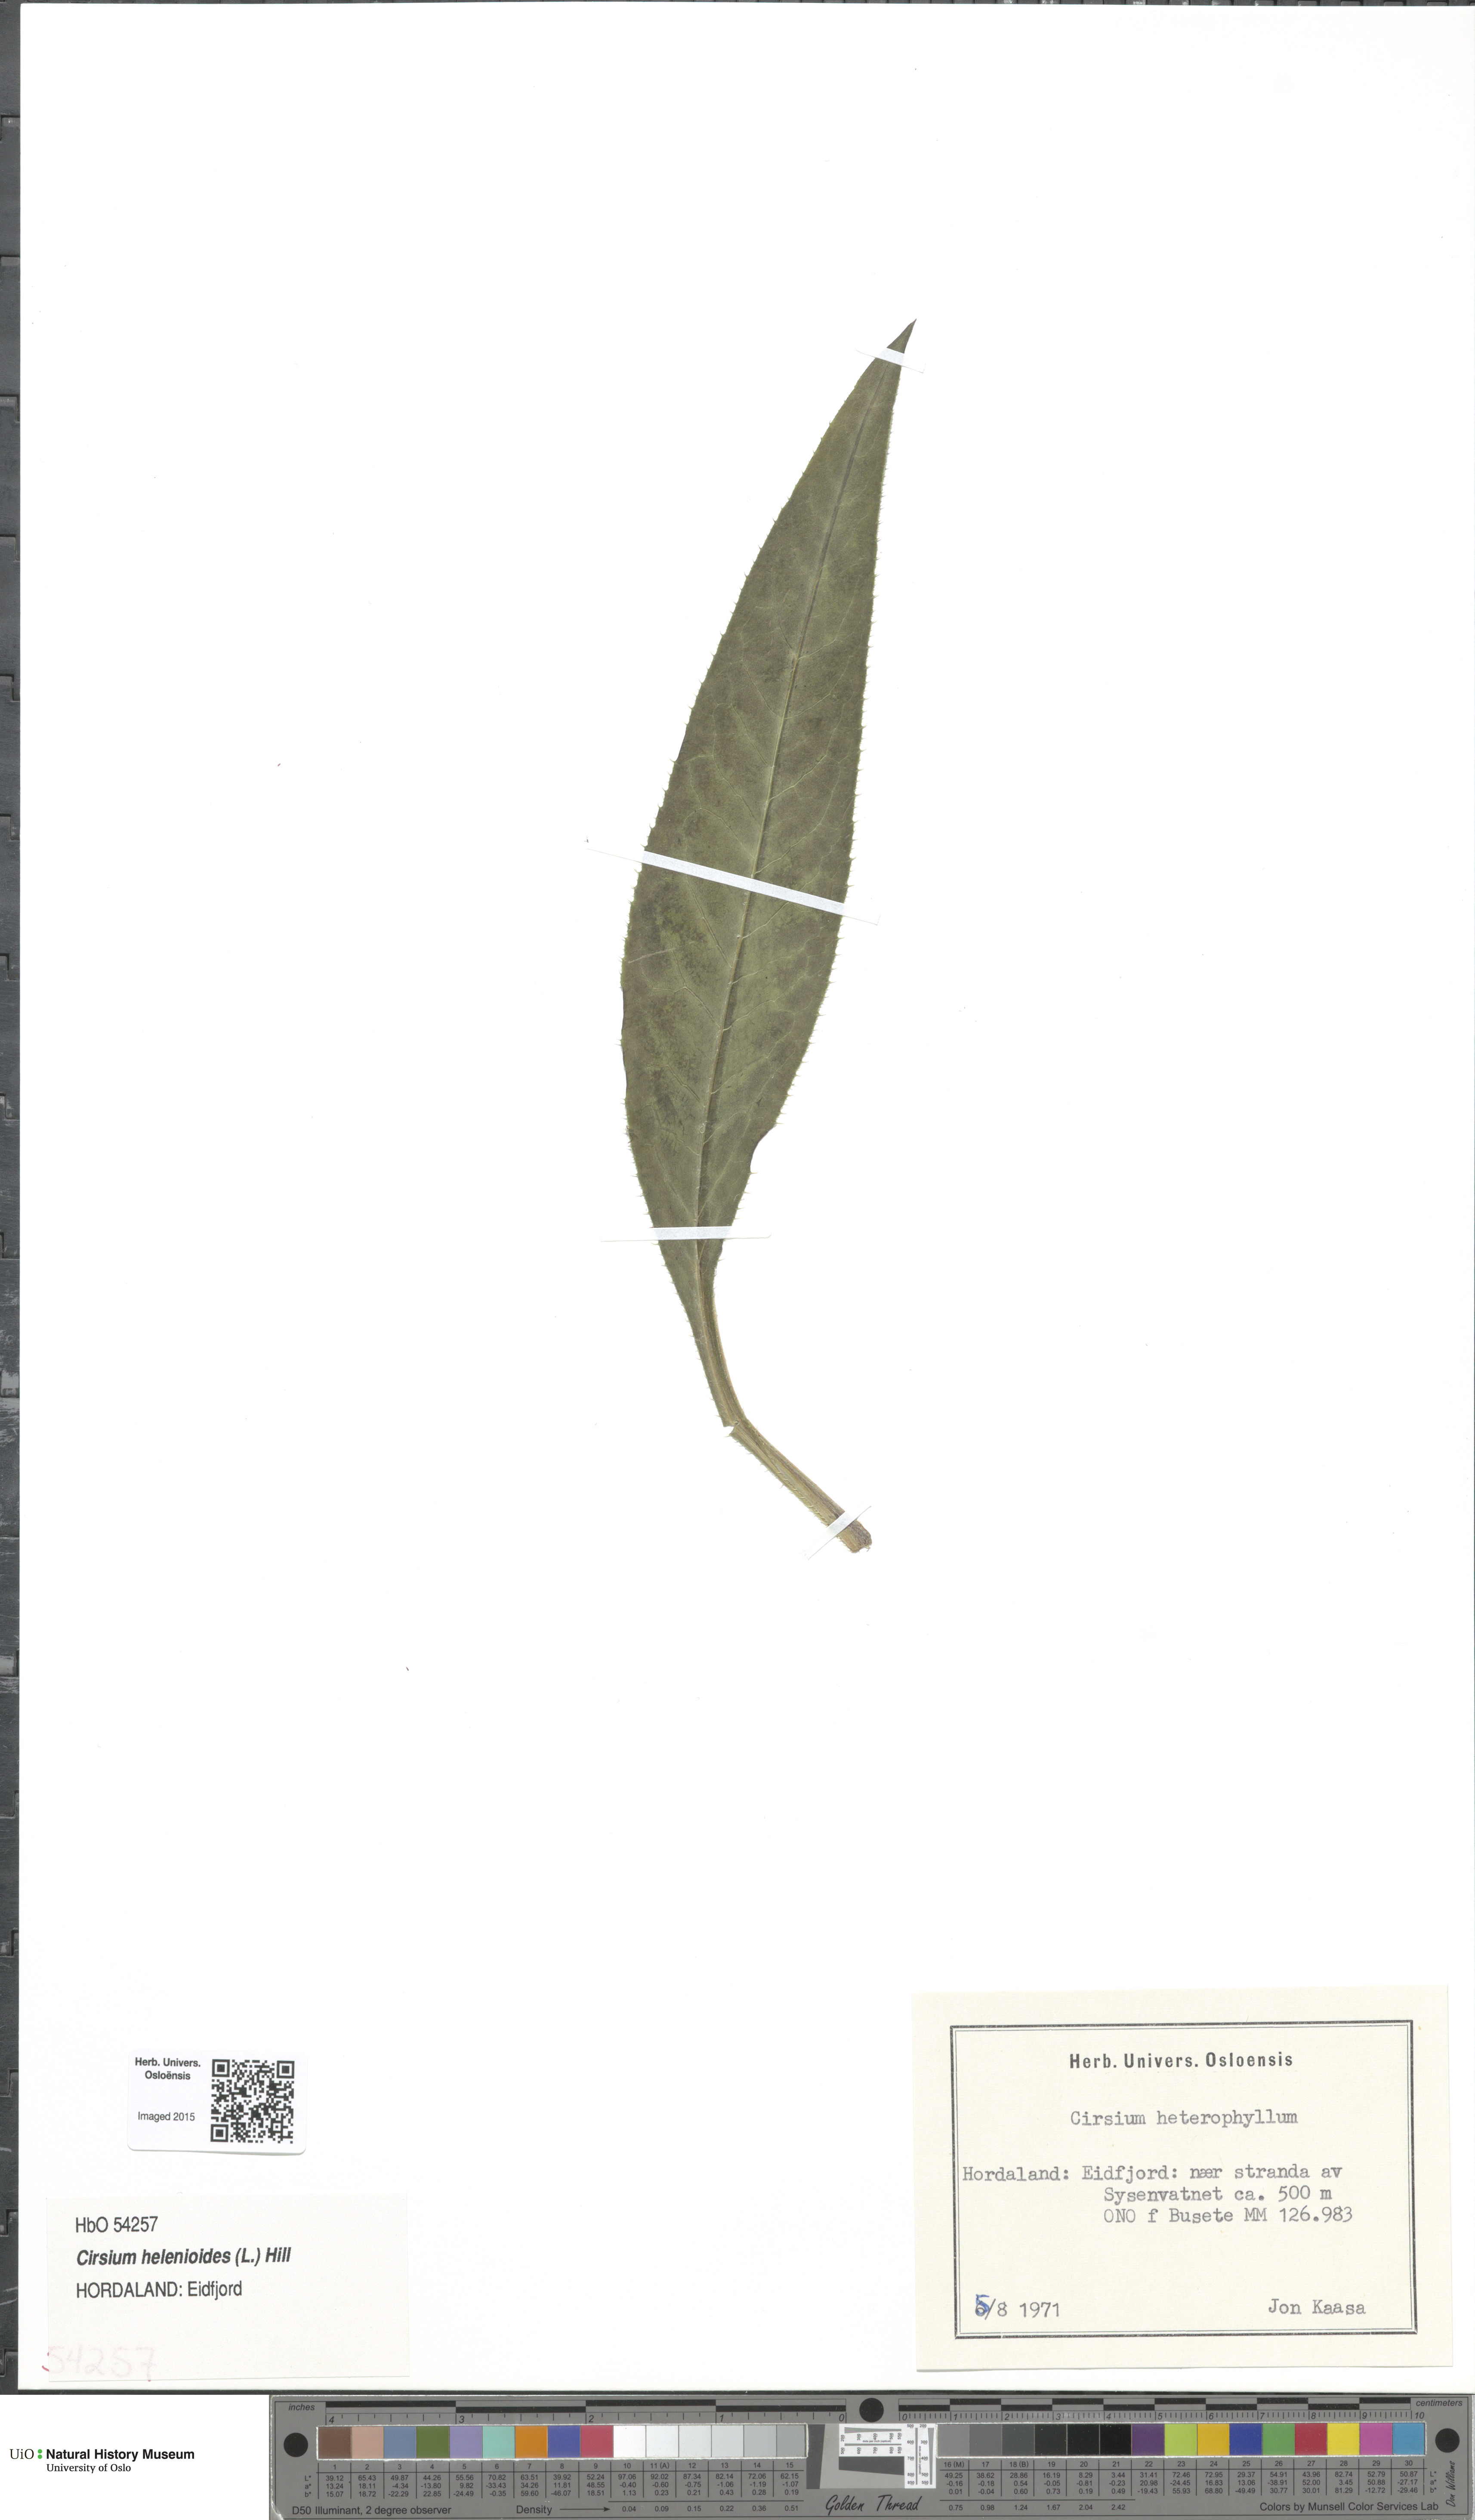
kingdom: Plantae
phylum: Tracheophyta
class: Magnoliopsida
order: Asterales
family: Asteraceae
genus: Cirsium
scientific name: Cirsium heterophyllum
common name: Melancholy thistle
